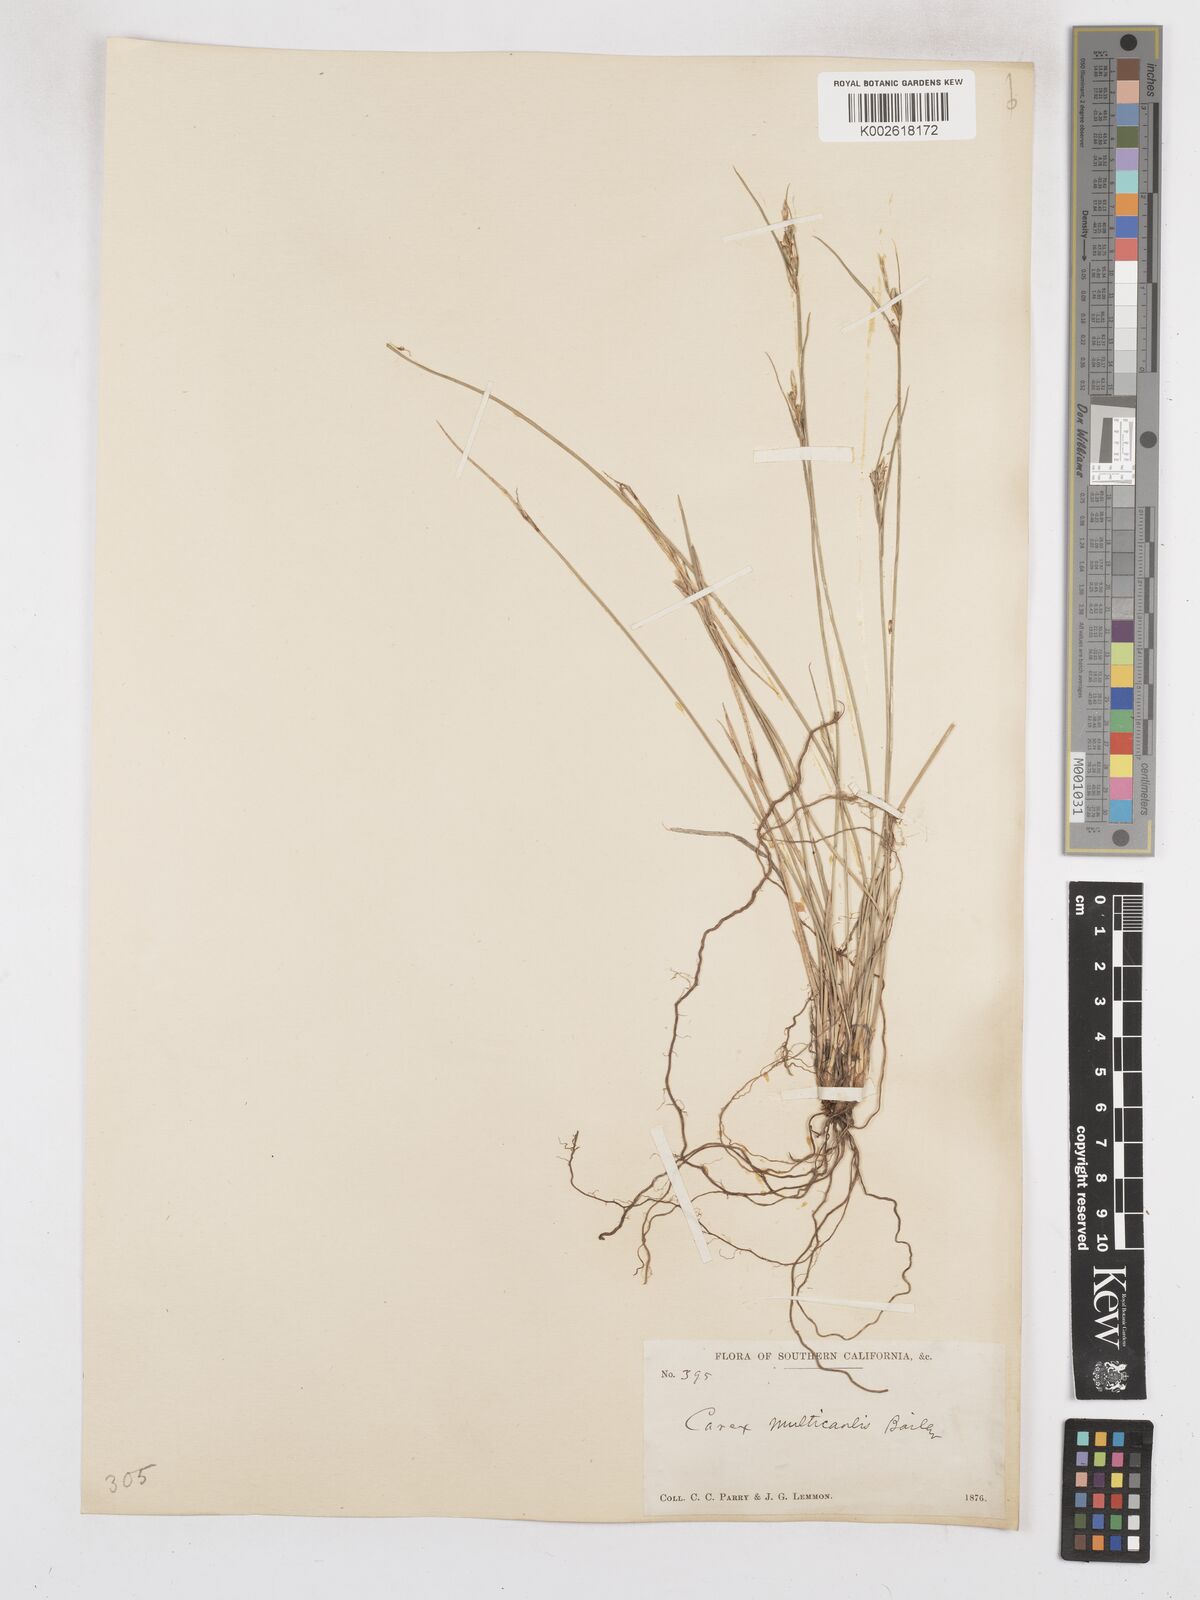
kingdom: Plantae
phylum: Tracheophyta
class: Liliopsida
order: Poales
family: Cyperaceae
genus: Carex
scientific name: Carex multicaulis
